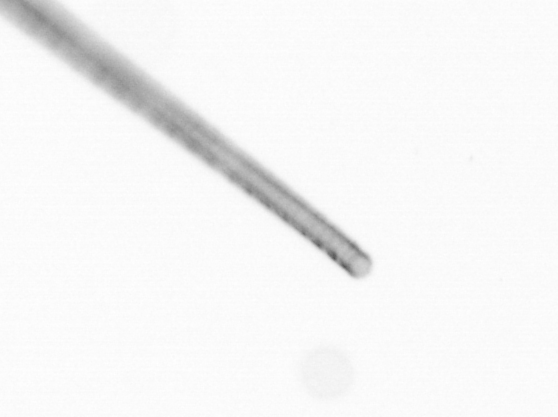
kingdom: Chromista
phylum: Ochrophyta
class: Bacillariophyceae
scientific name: Bacillariophyceae
